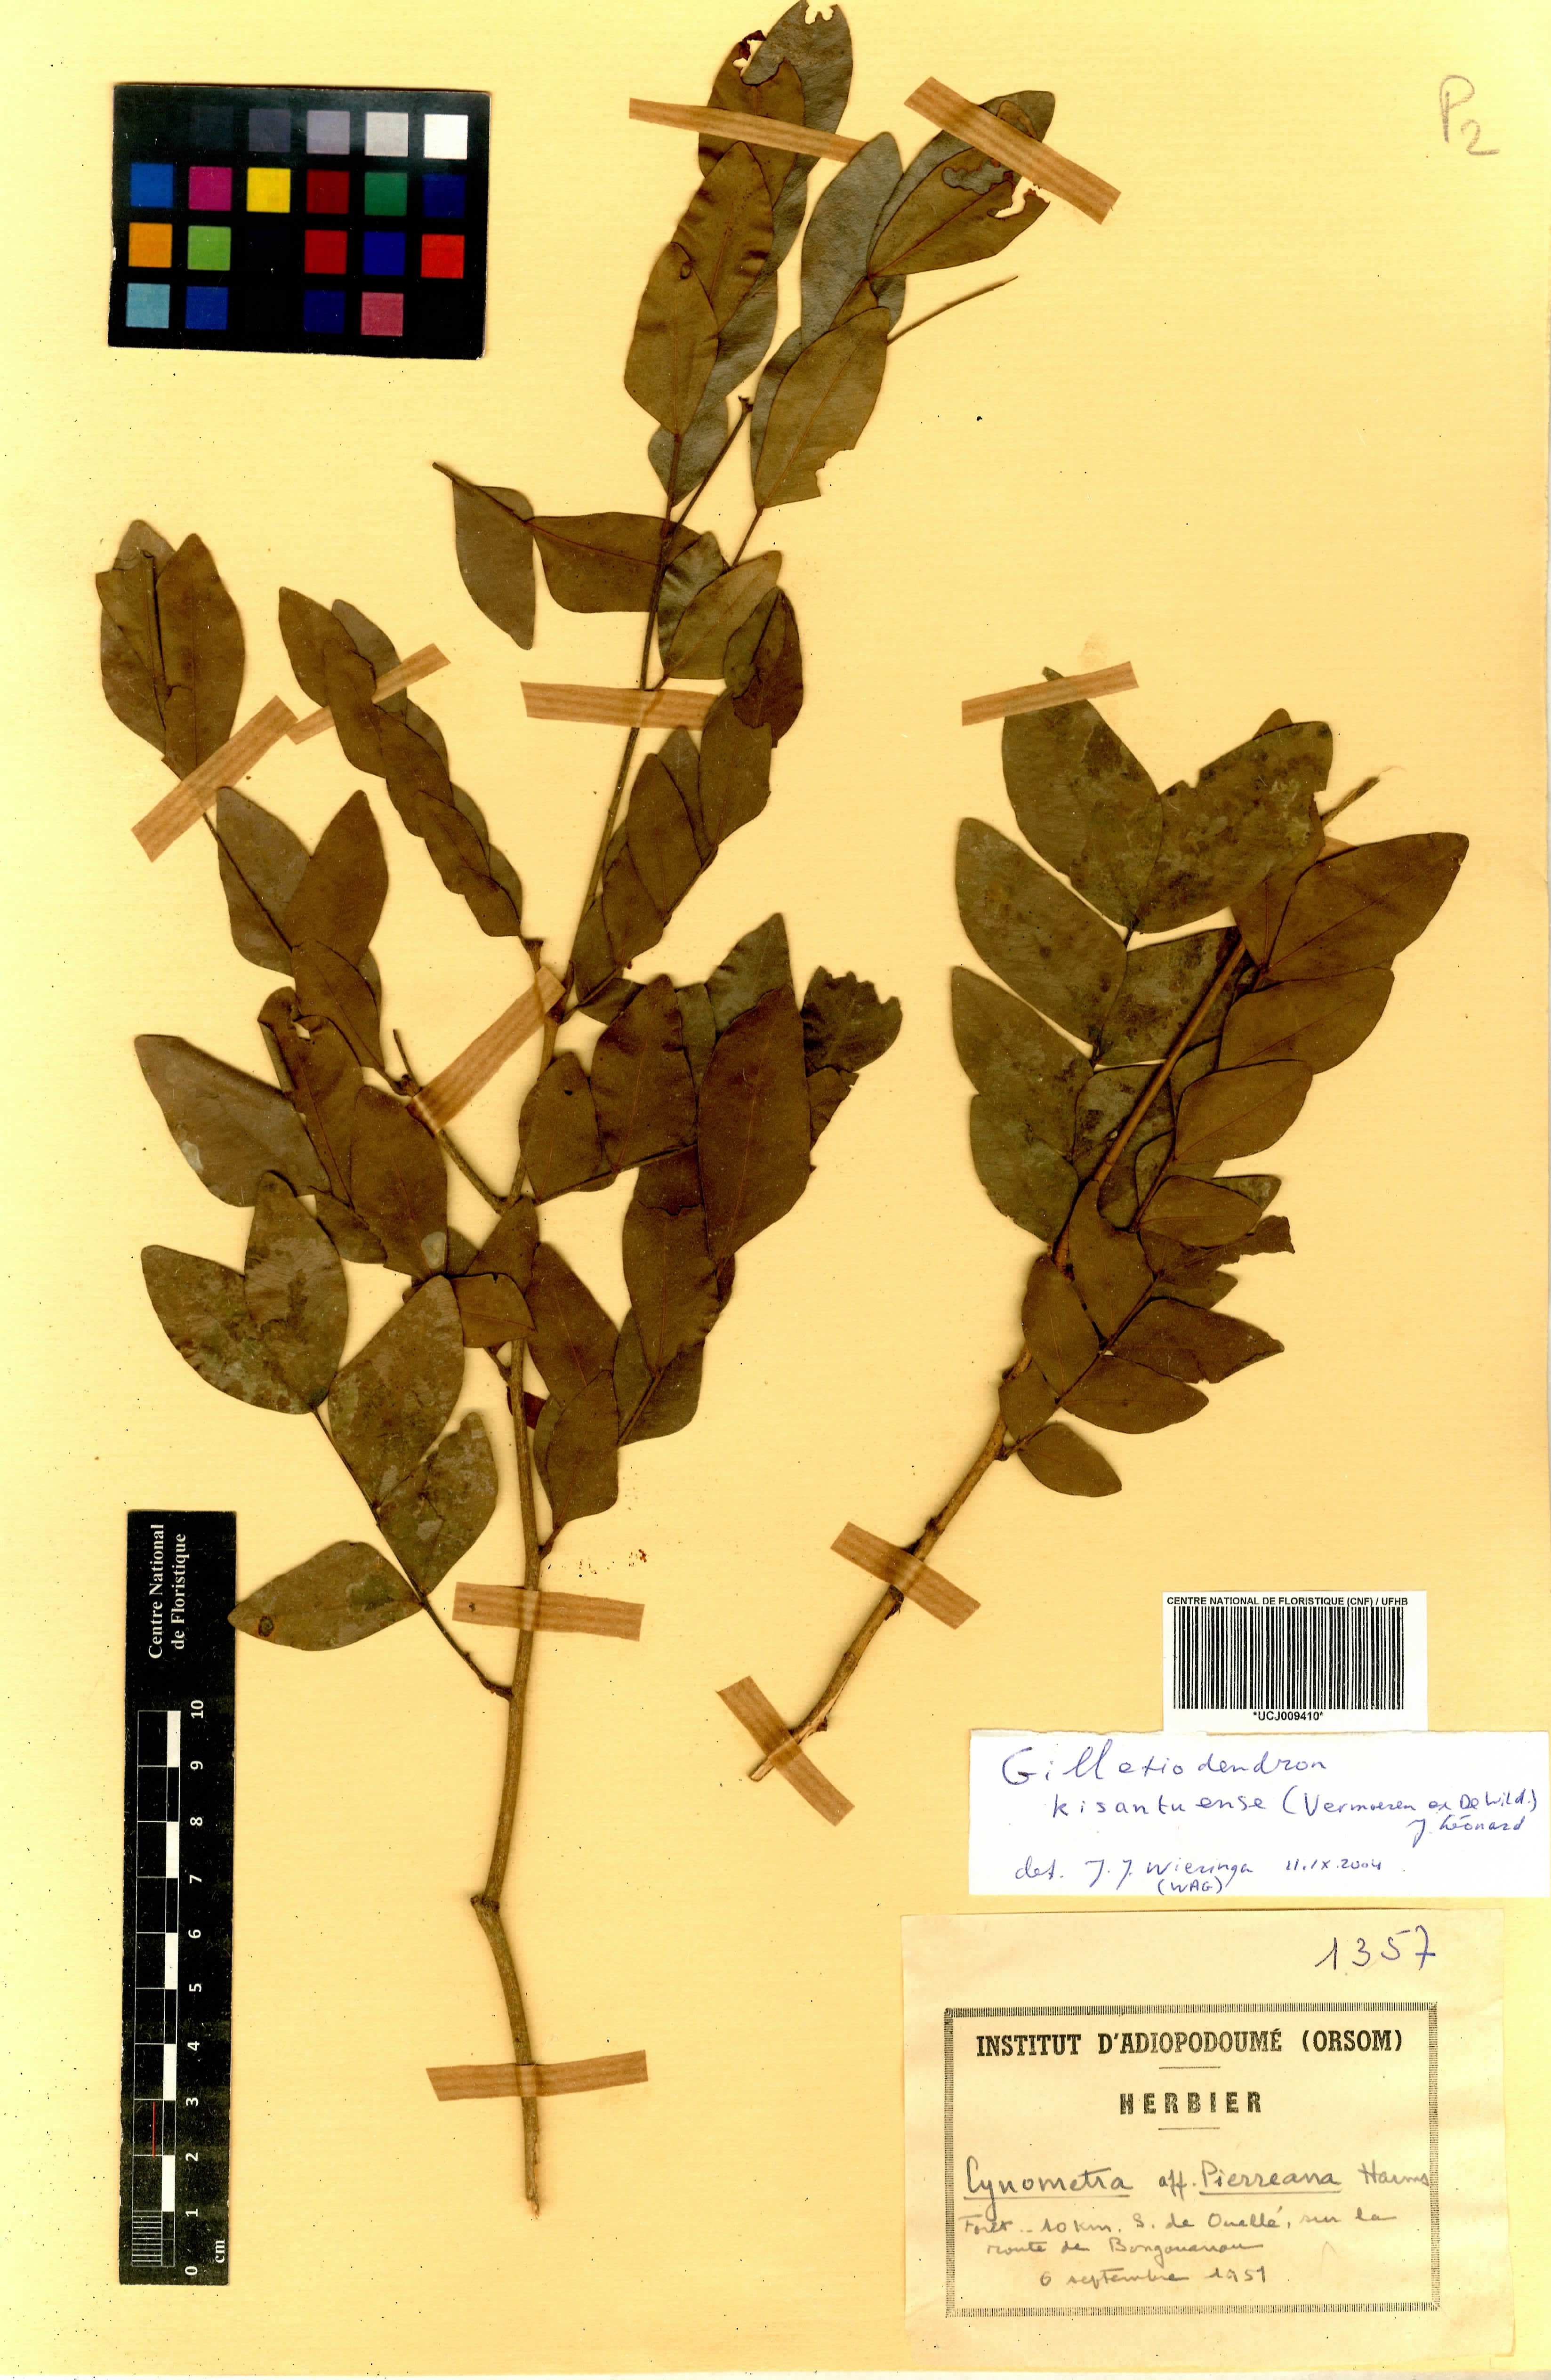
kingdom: Plantae
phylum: Tracheophyta
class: Magnoliopsida
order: Fabales
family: Fabaceae
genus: Gilletiodendron
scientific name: Gilletiodendron pierreanum
